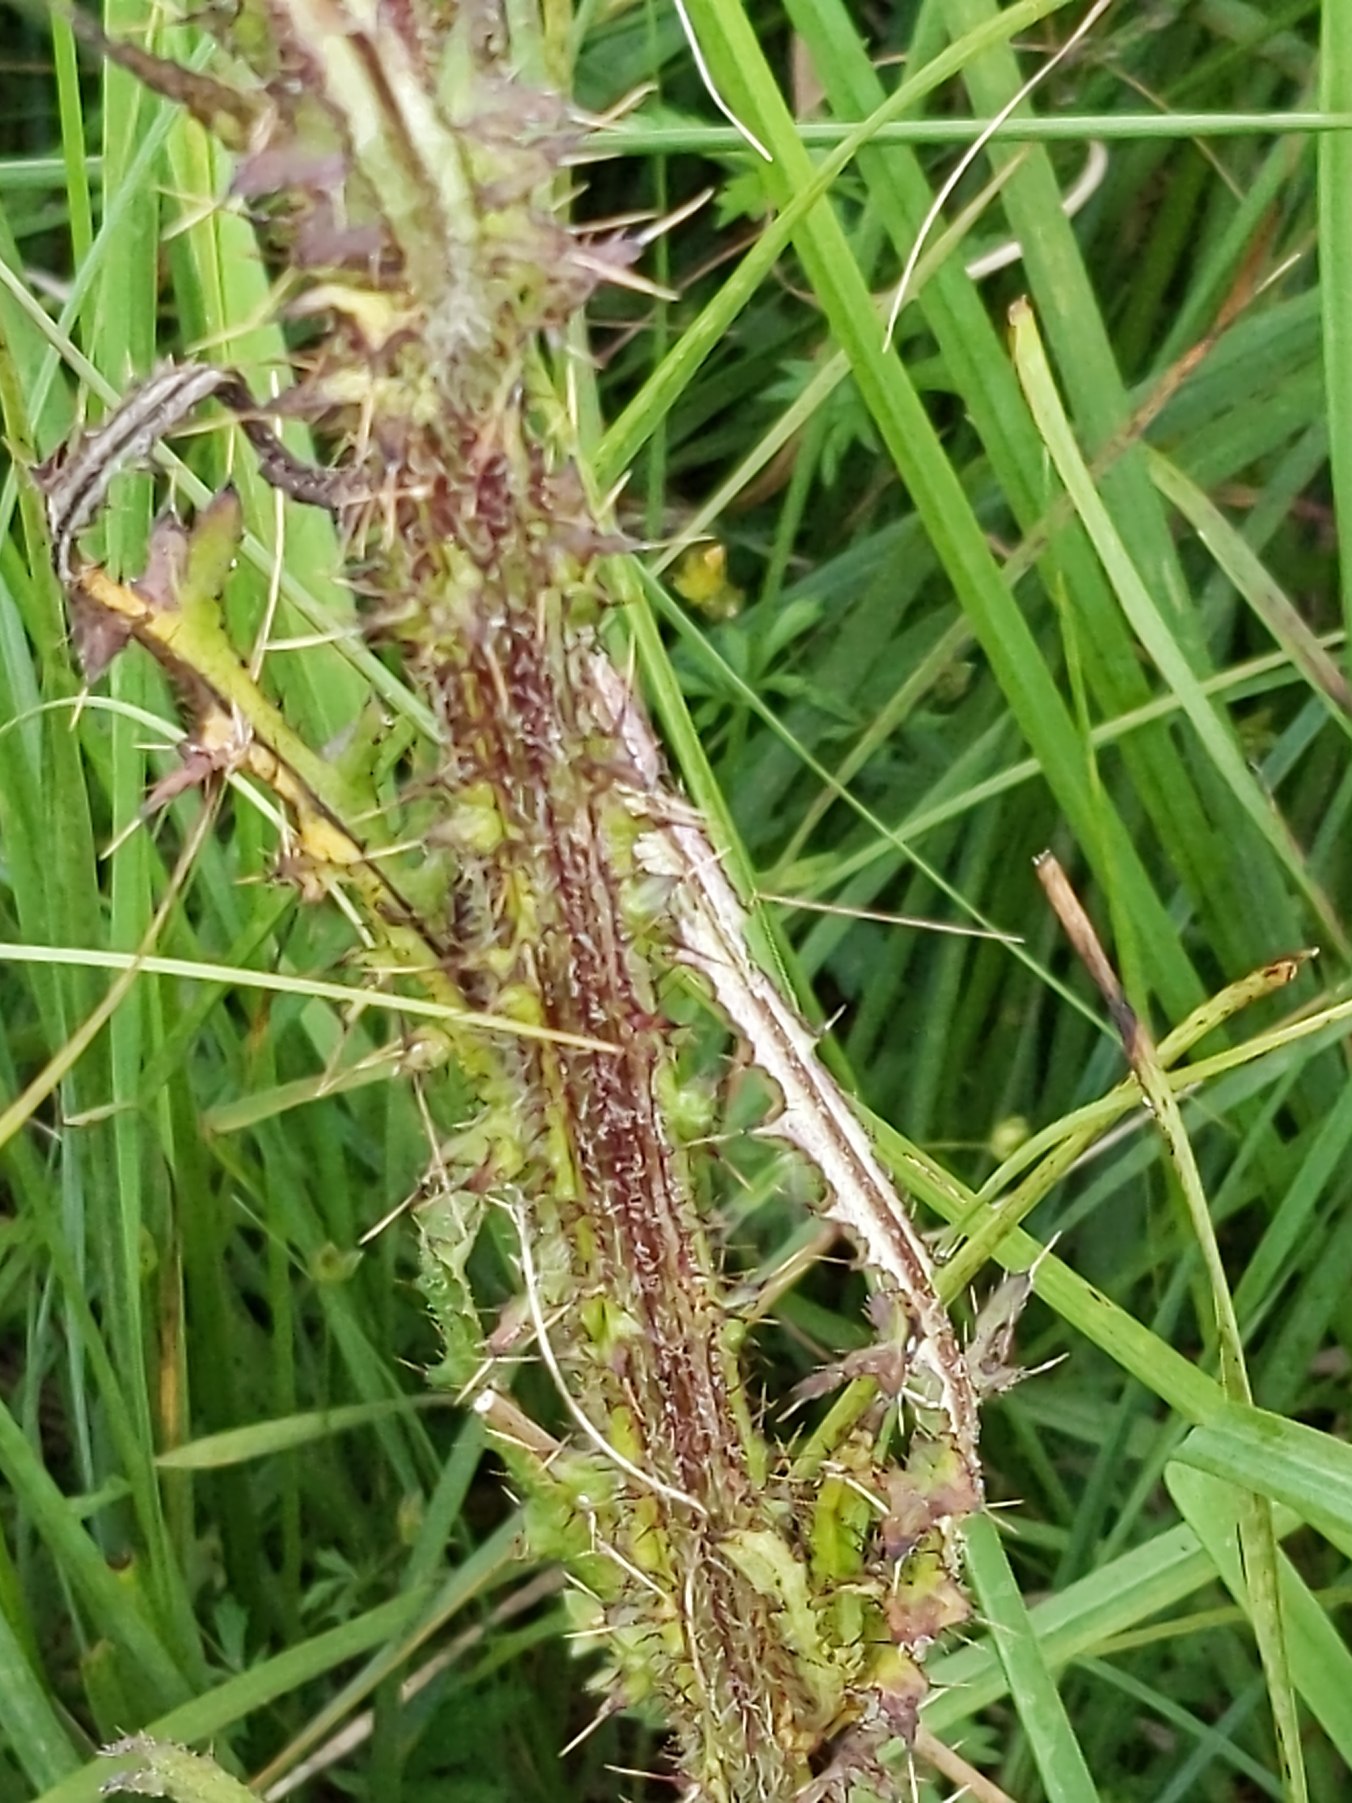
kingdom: Plantae
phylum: Tracheophyta
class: Magnoliopsida
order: Asterales
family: Asteraceae
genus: Cirsium
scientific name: Cirsium palustre
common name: Kær-tidsel
